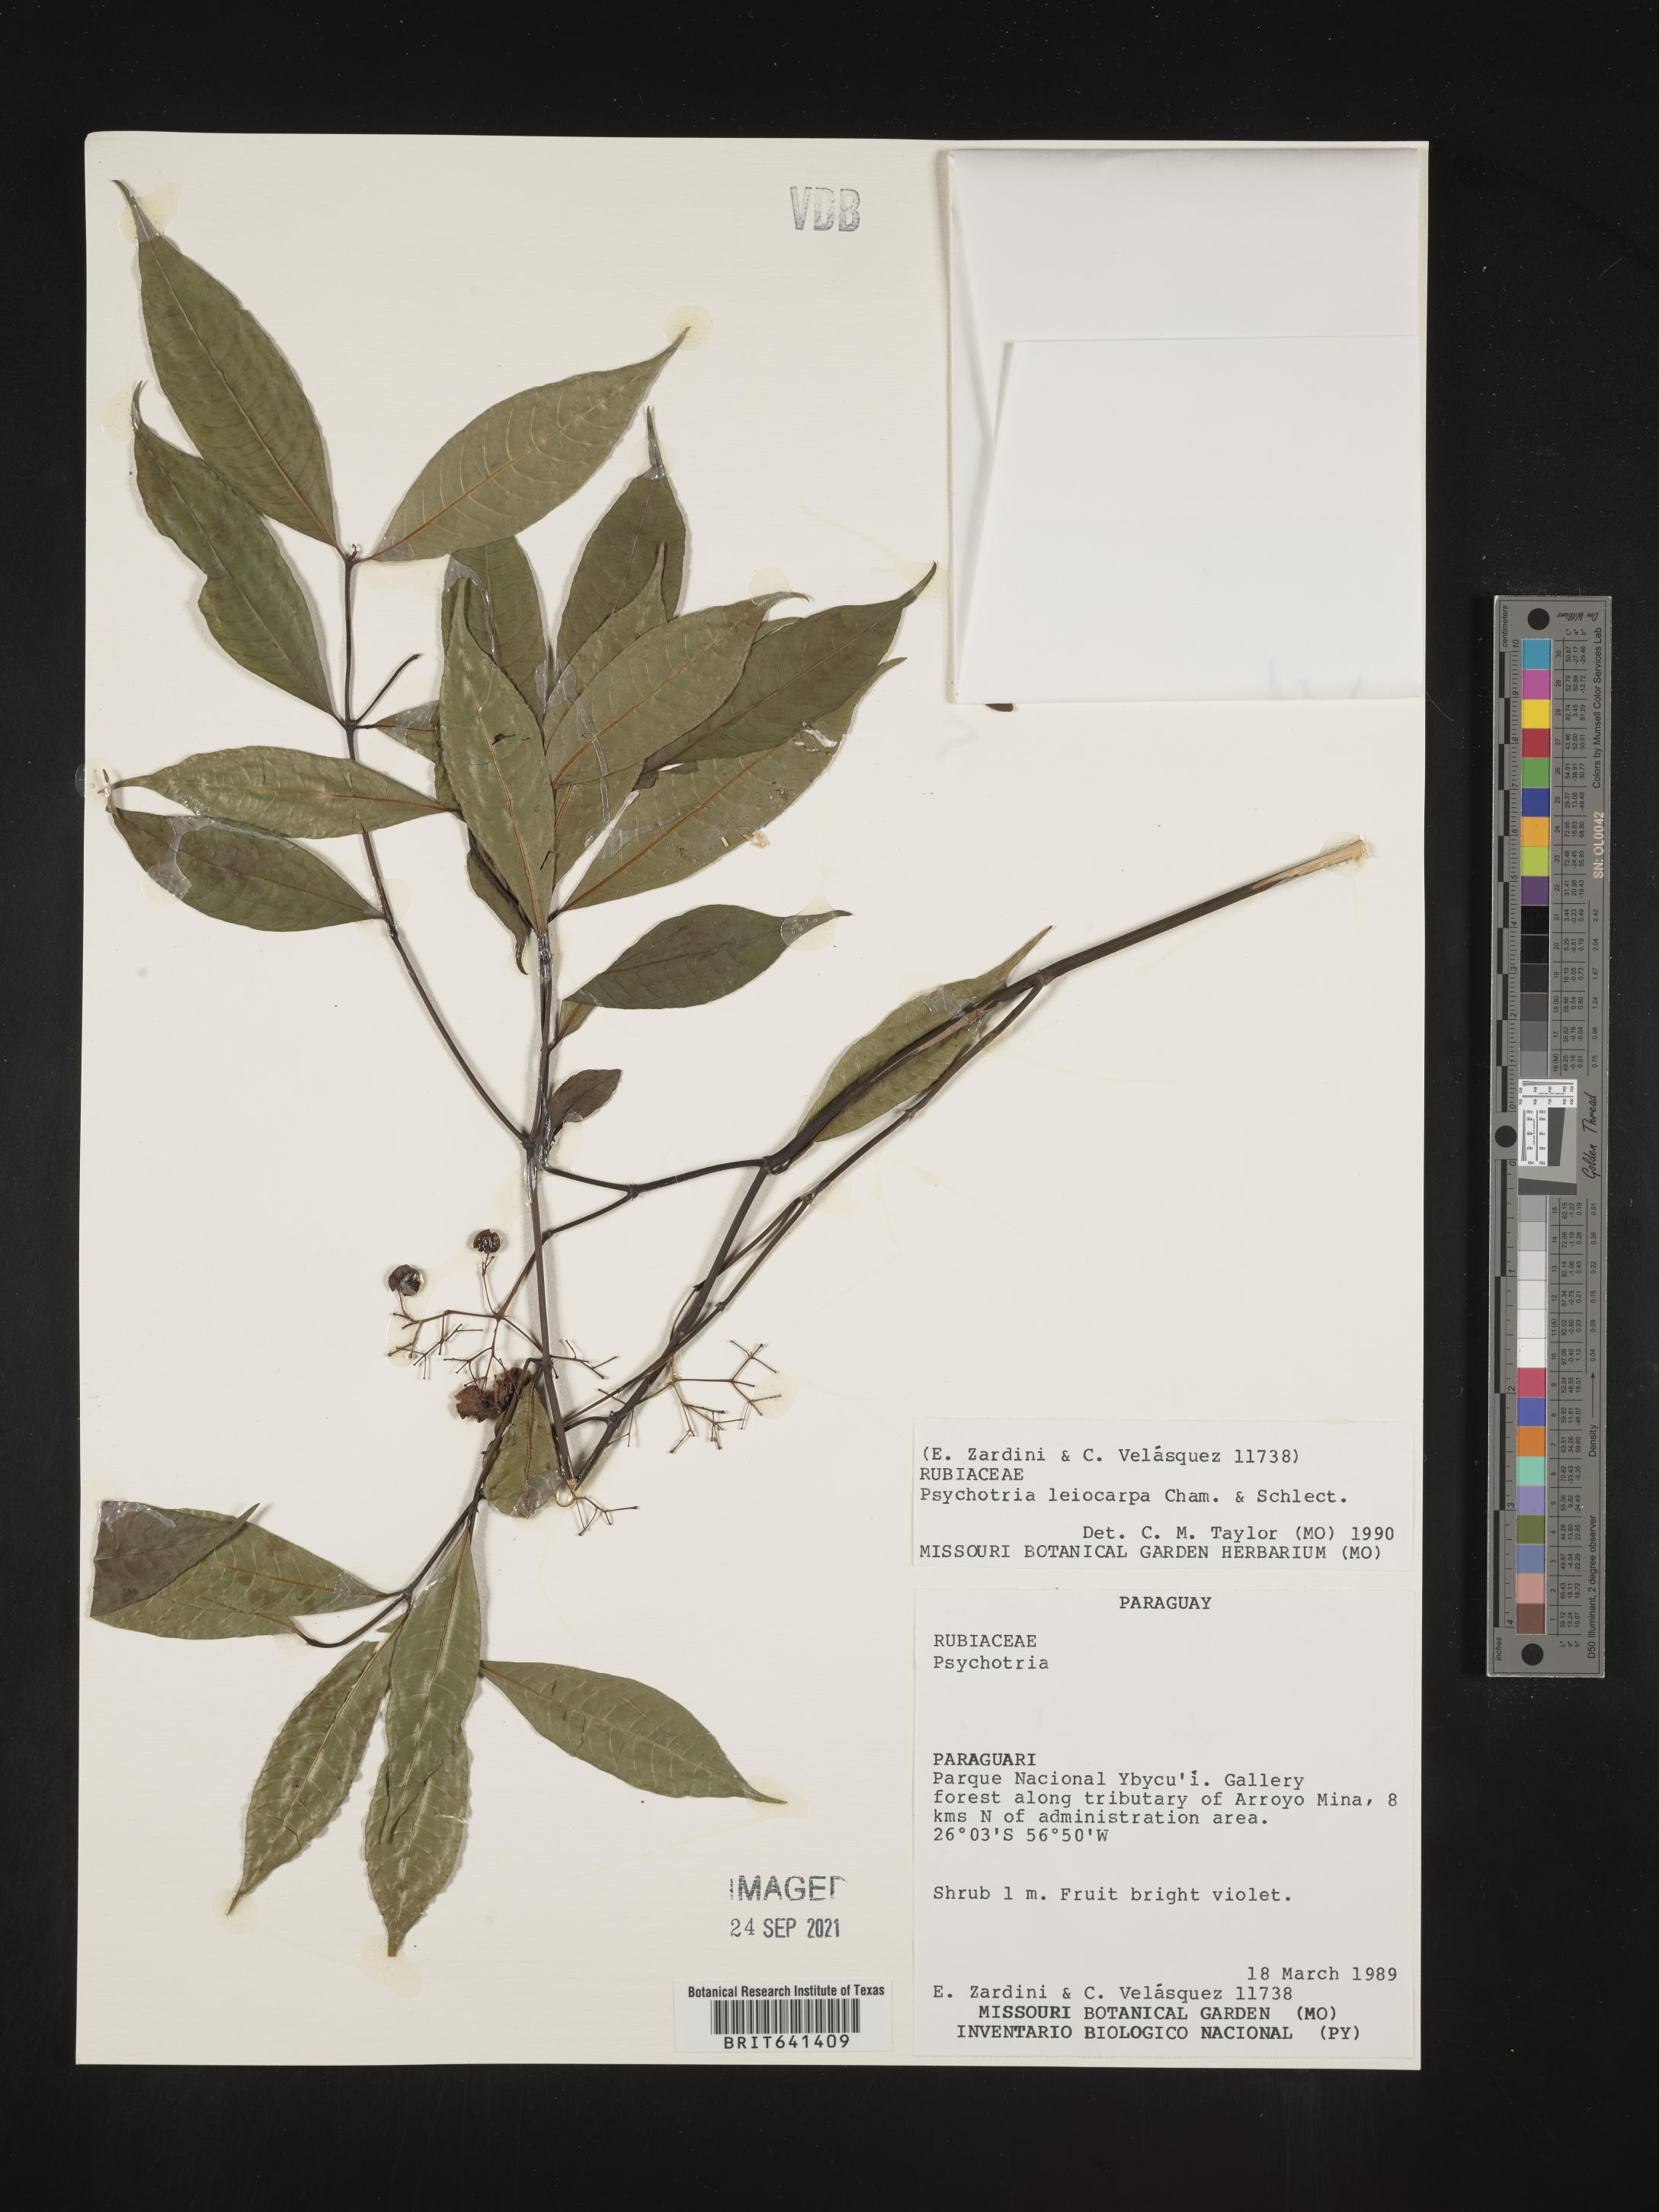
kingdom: Plantae
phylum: Tracheophyta
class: Magnoliopsida
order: Gentianales
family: Rubiaceae
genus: Psychotria
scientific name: Psychotria
